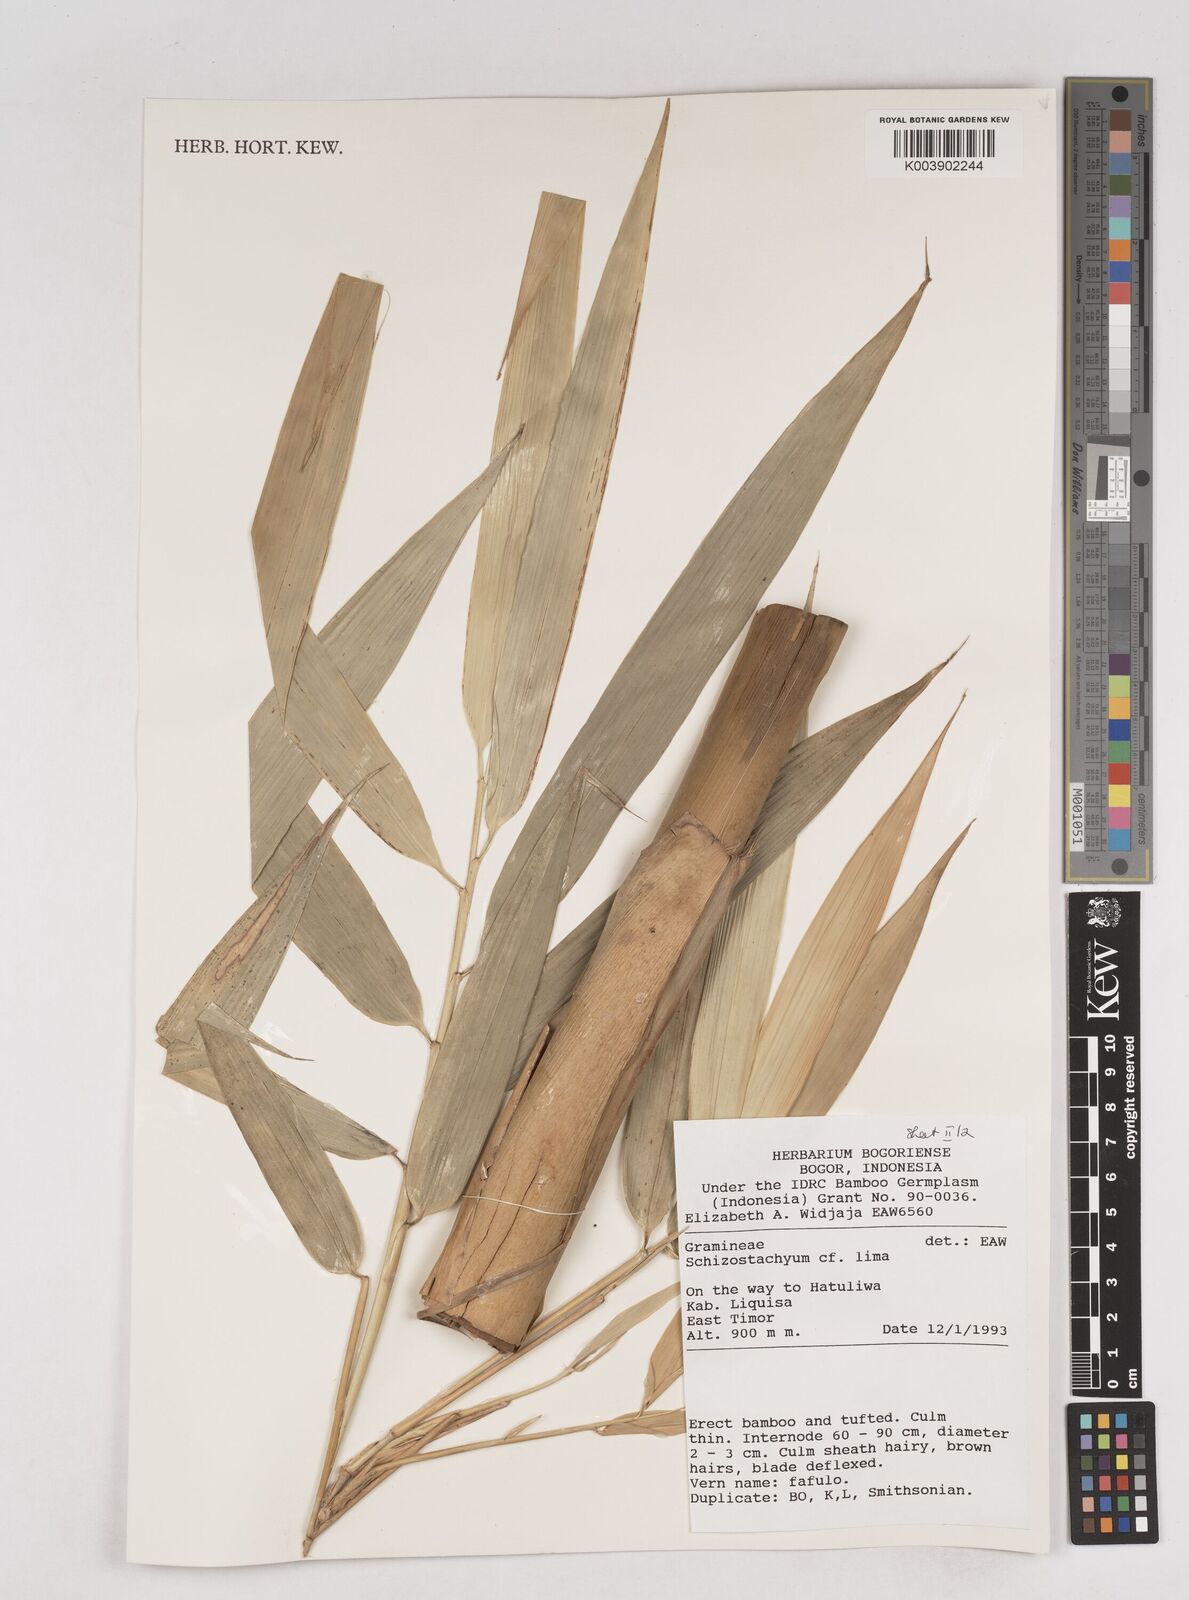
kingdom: Plantae
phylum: Tracheophyta
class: Liliopsida
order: Poales
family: Poaceae
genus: Schizostachyum
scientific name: Schizostachyum lima
